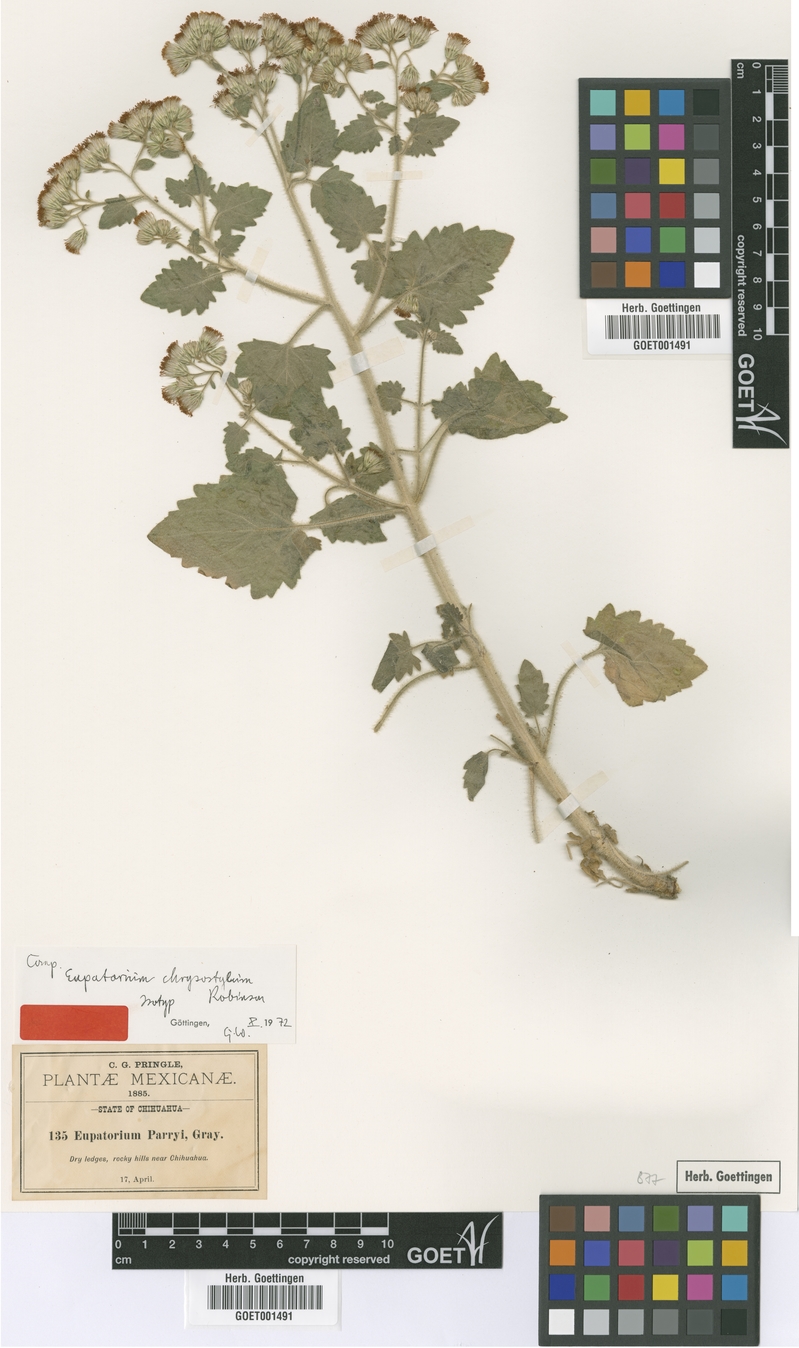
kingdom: Plantae
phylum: Tracheophyta
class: Magnoliopsida
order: Asterales
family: Asteraceae
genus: Flyriella
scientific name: Flyriella parryi
